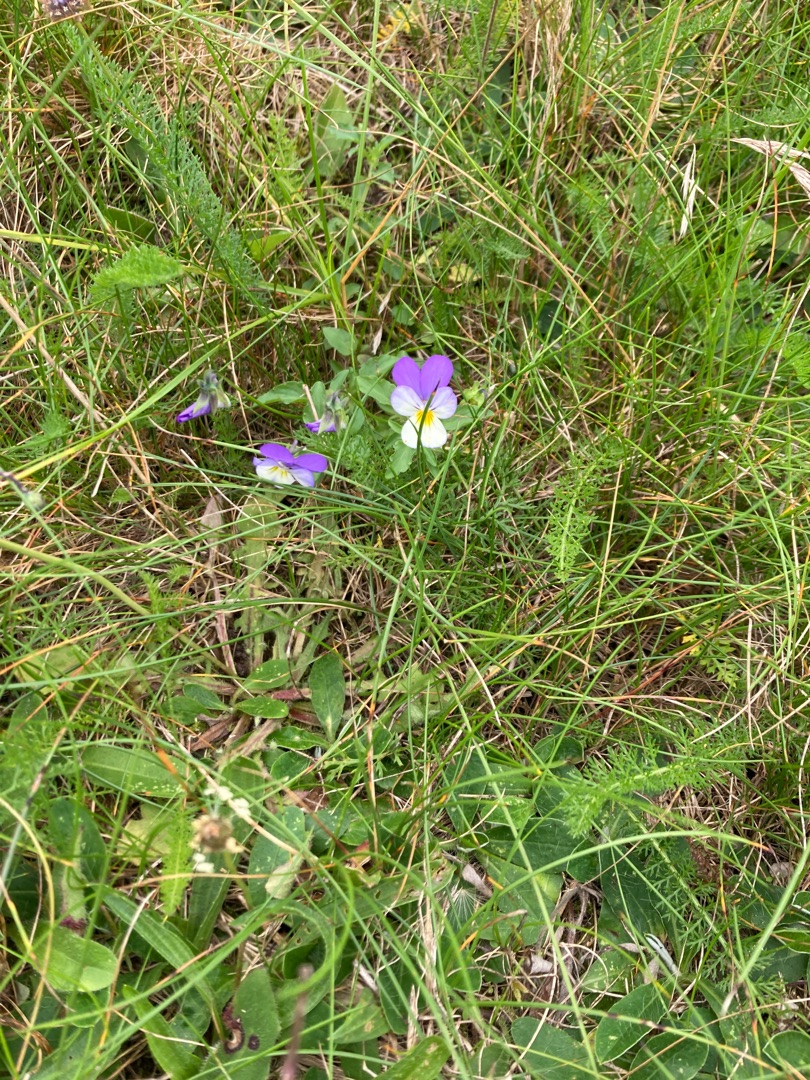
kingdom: Plantae
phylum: Tracheophyta
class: Magnoliopsida
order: Malpighiales
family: Violaceae
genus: Viola
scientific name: Viola tricolor
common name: Almindelig stedmoderblomst
